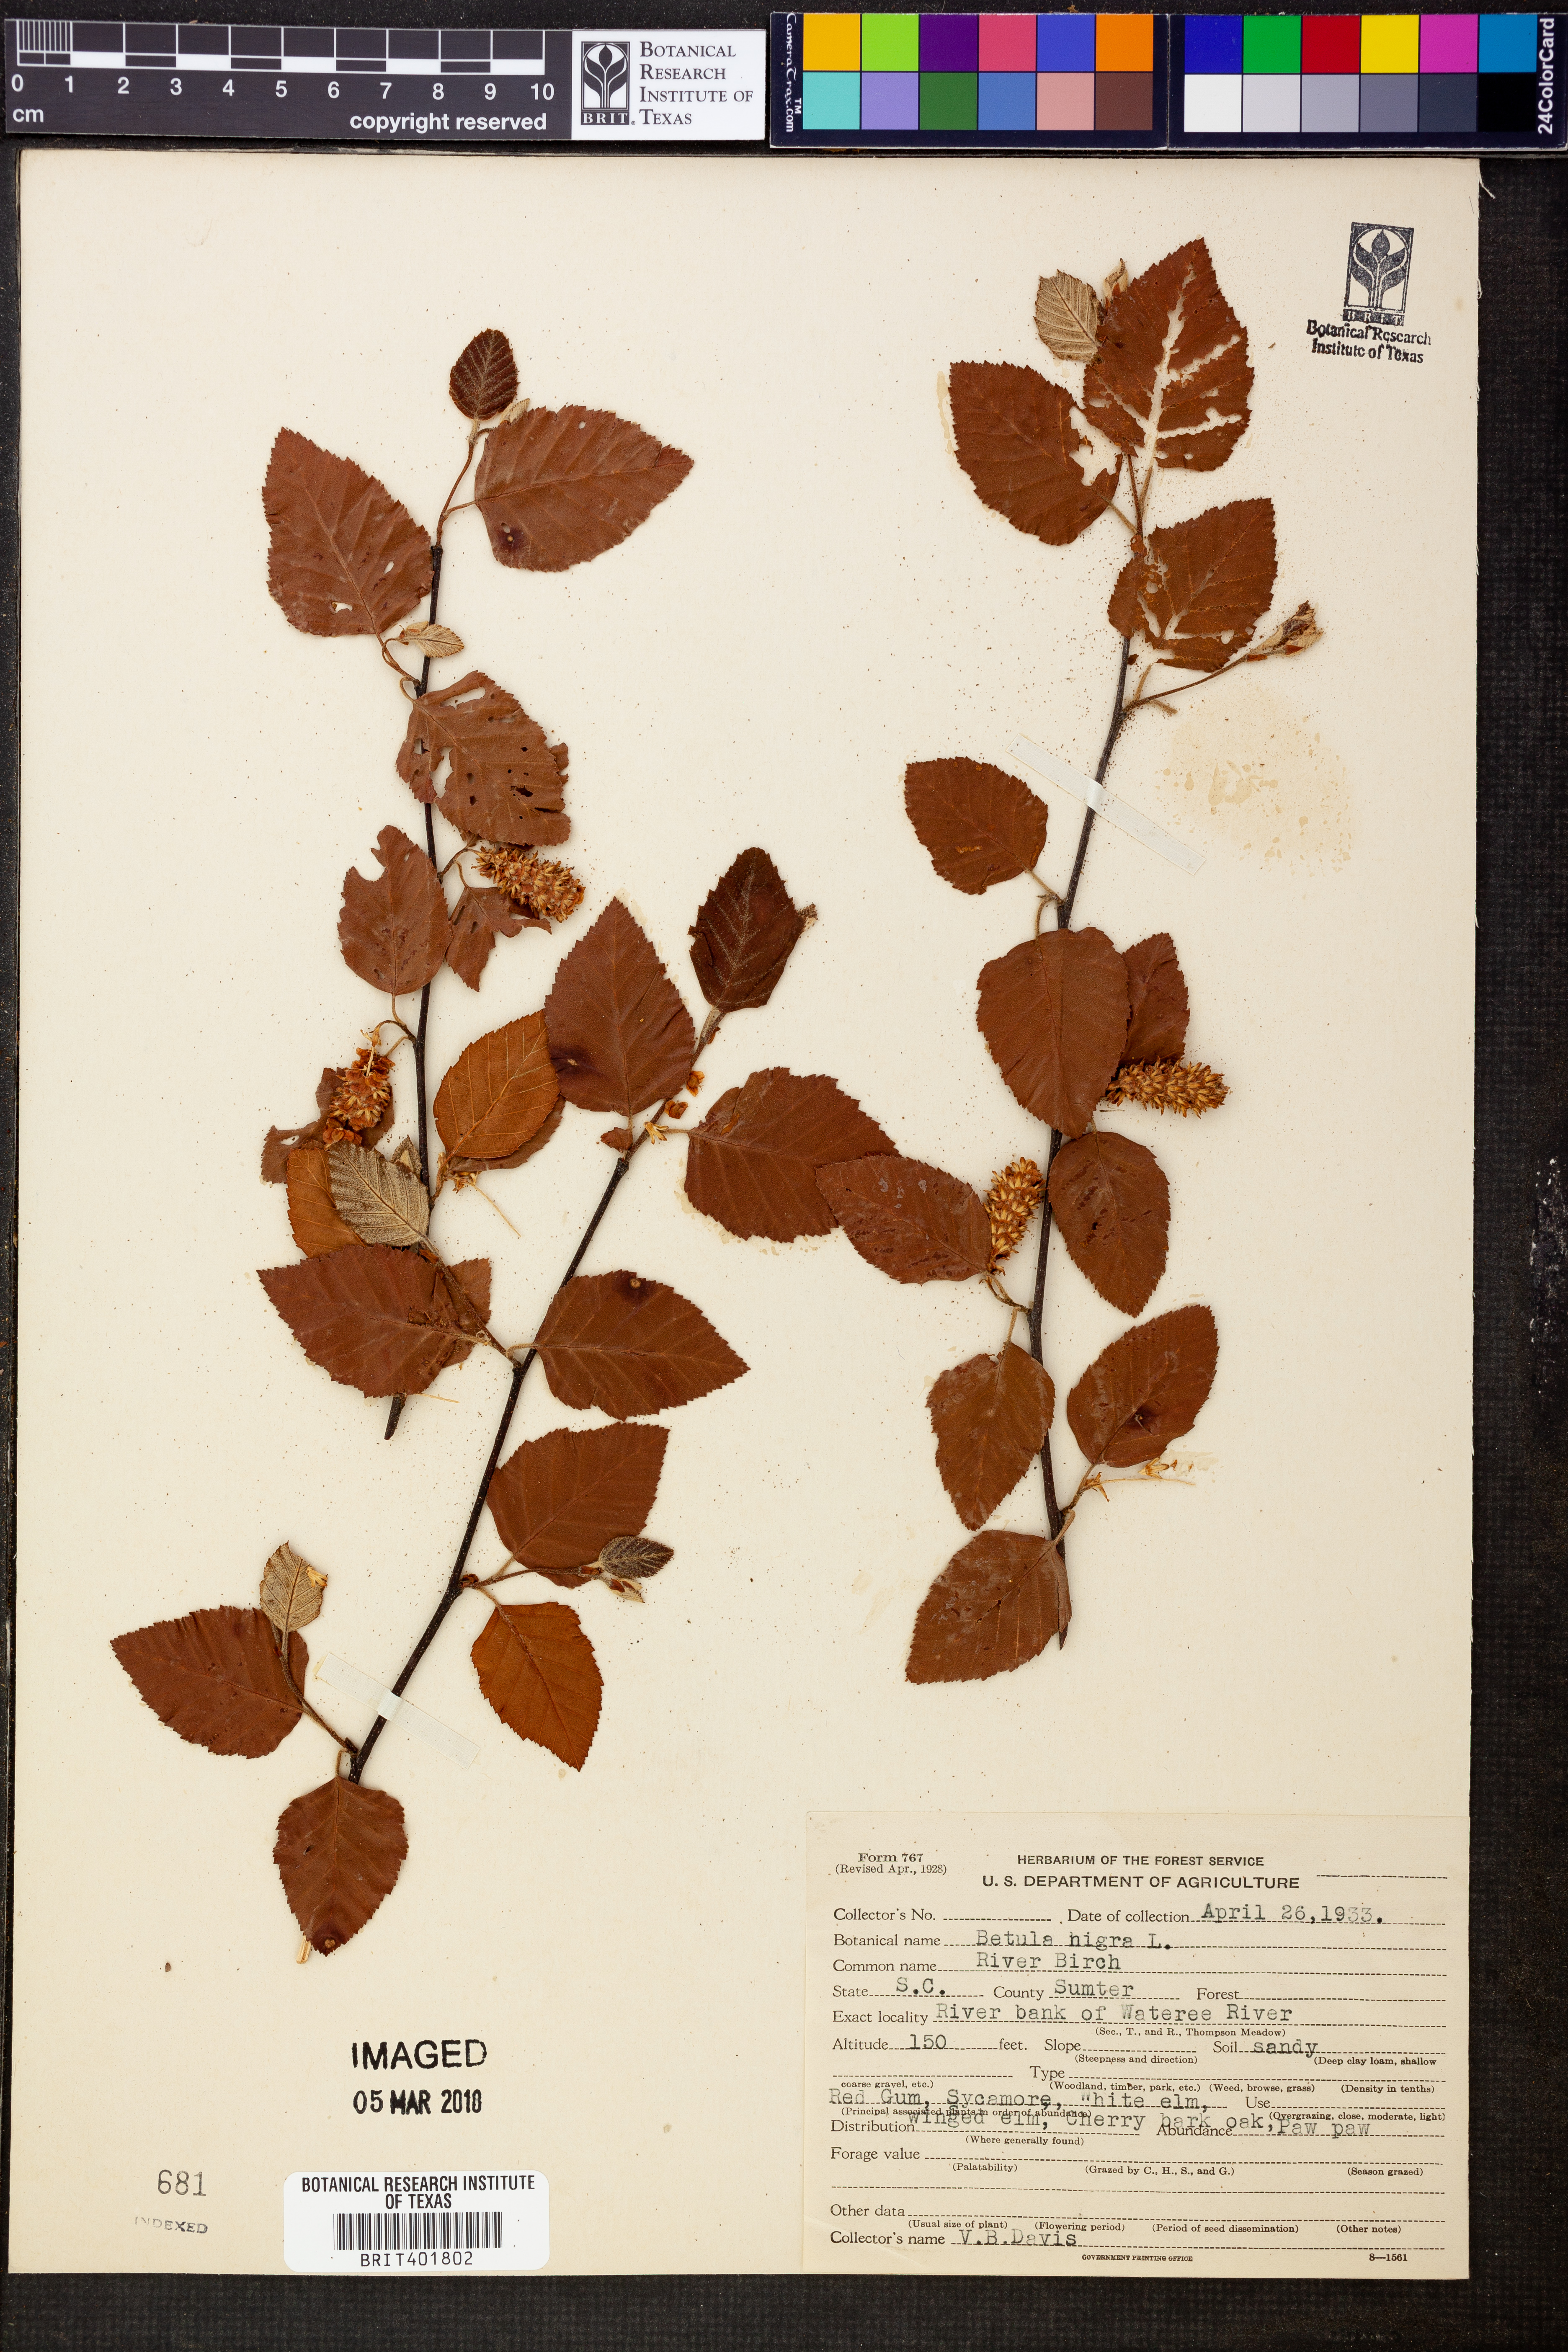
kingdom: Plantae
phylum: Tracheophyta
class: Magnoliopsida
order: Fagales
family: Betulaceae
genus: Betula
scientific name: Betula nigra
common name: Black birch
